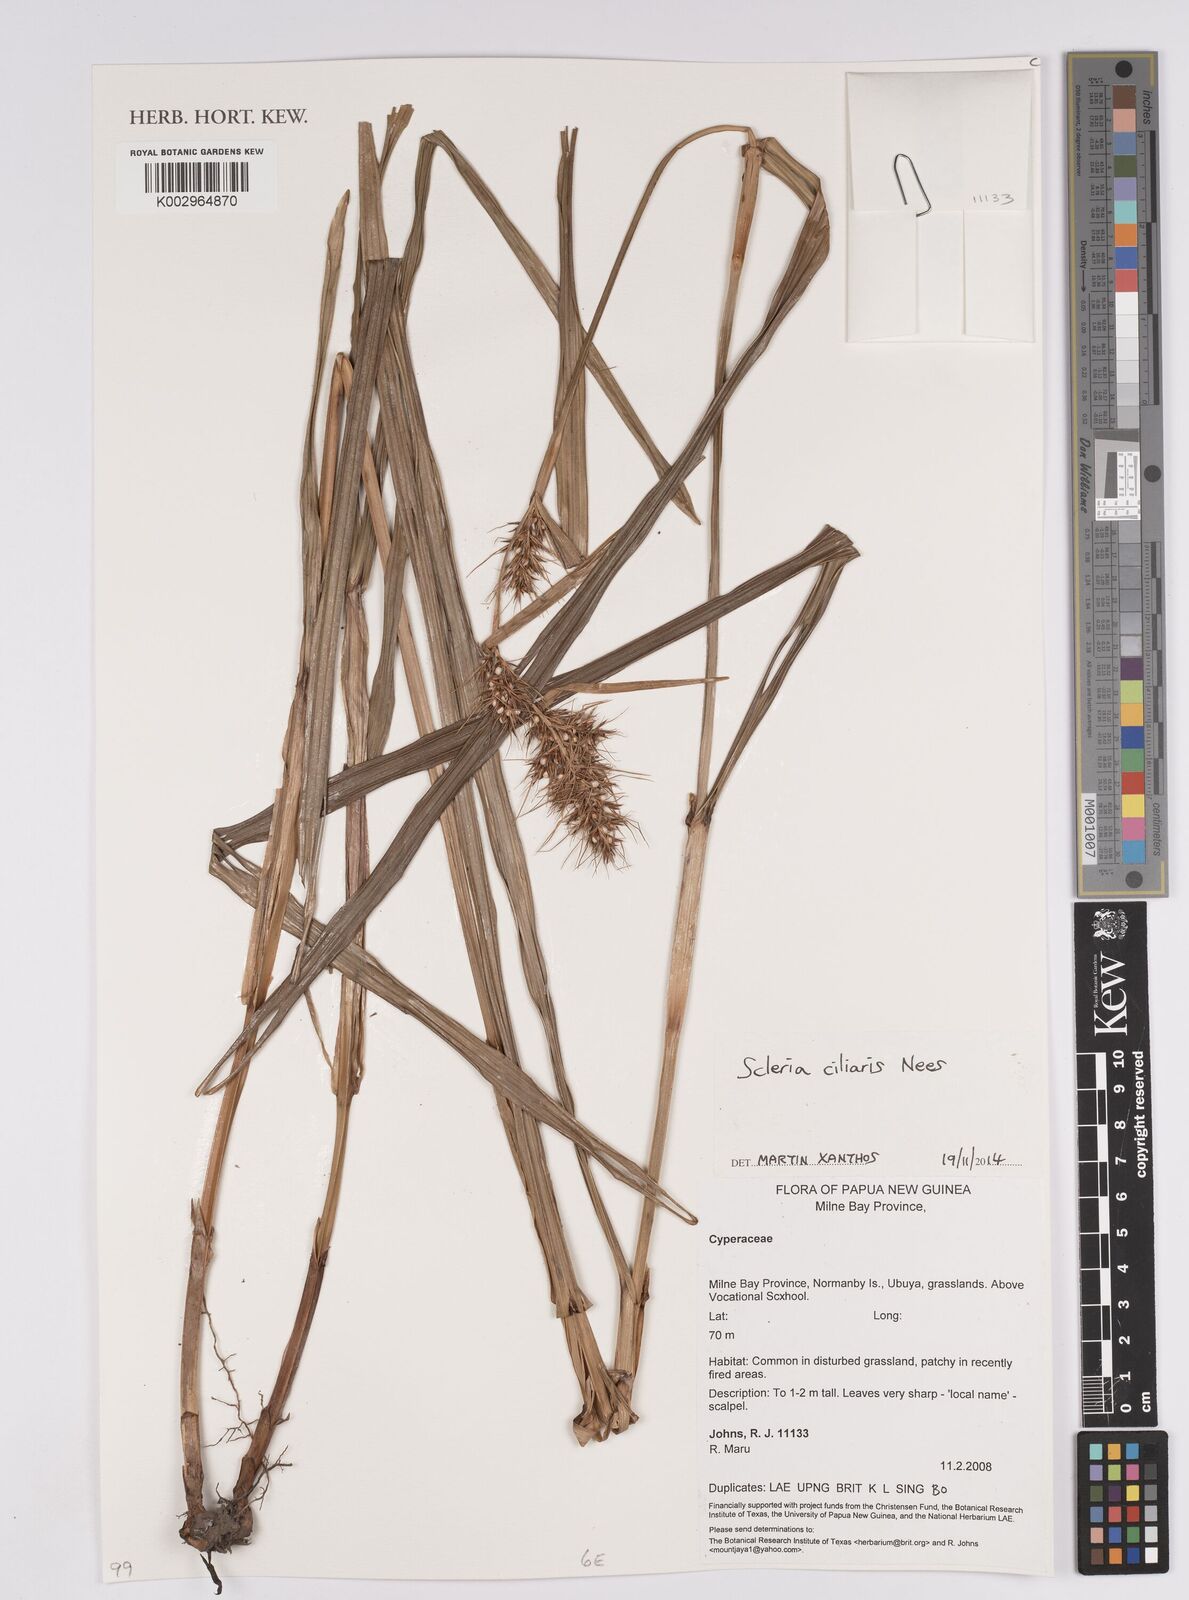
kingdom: Plantae
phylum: Tracheophyta
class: Liliopsida
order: Poales
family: Cyperaceae
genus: Scleria
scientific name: Scleria ciliaris
